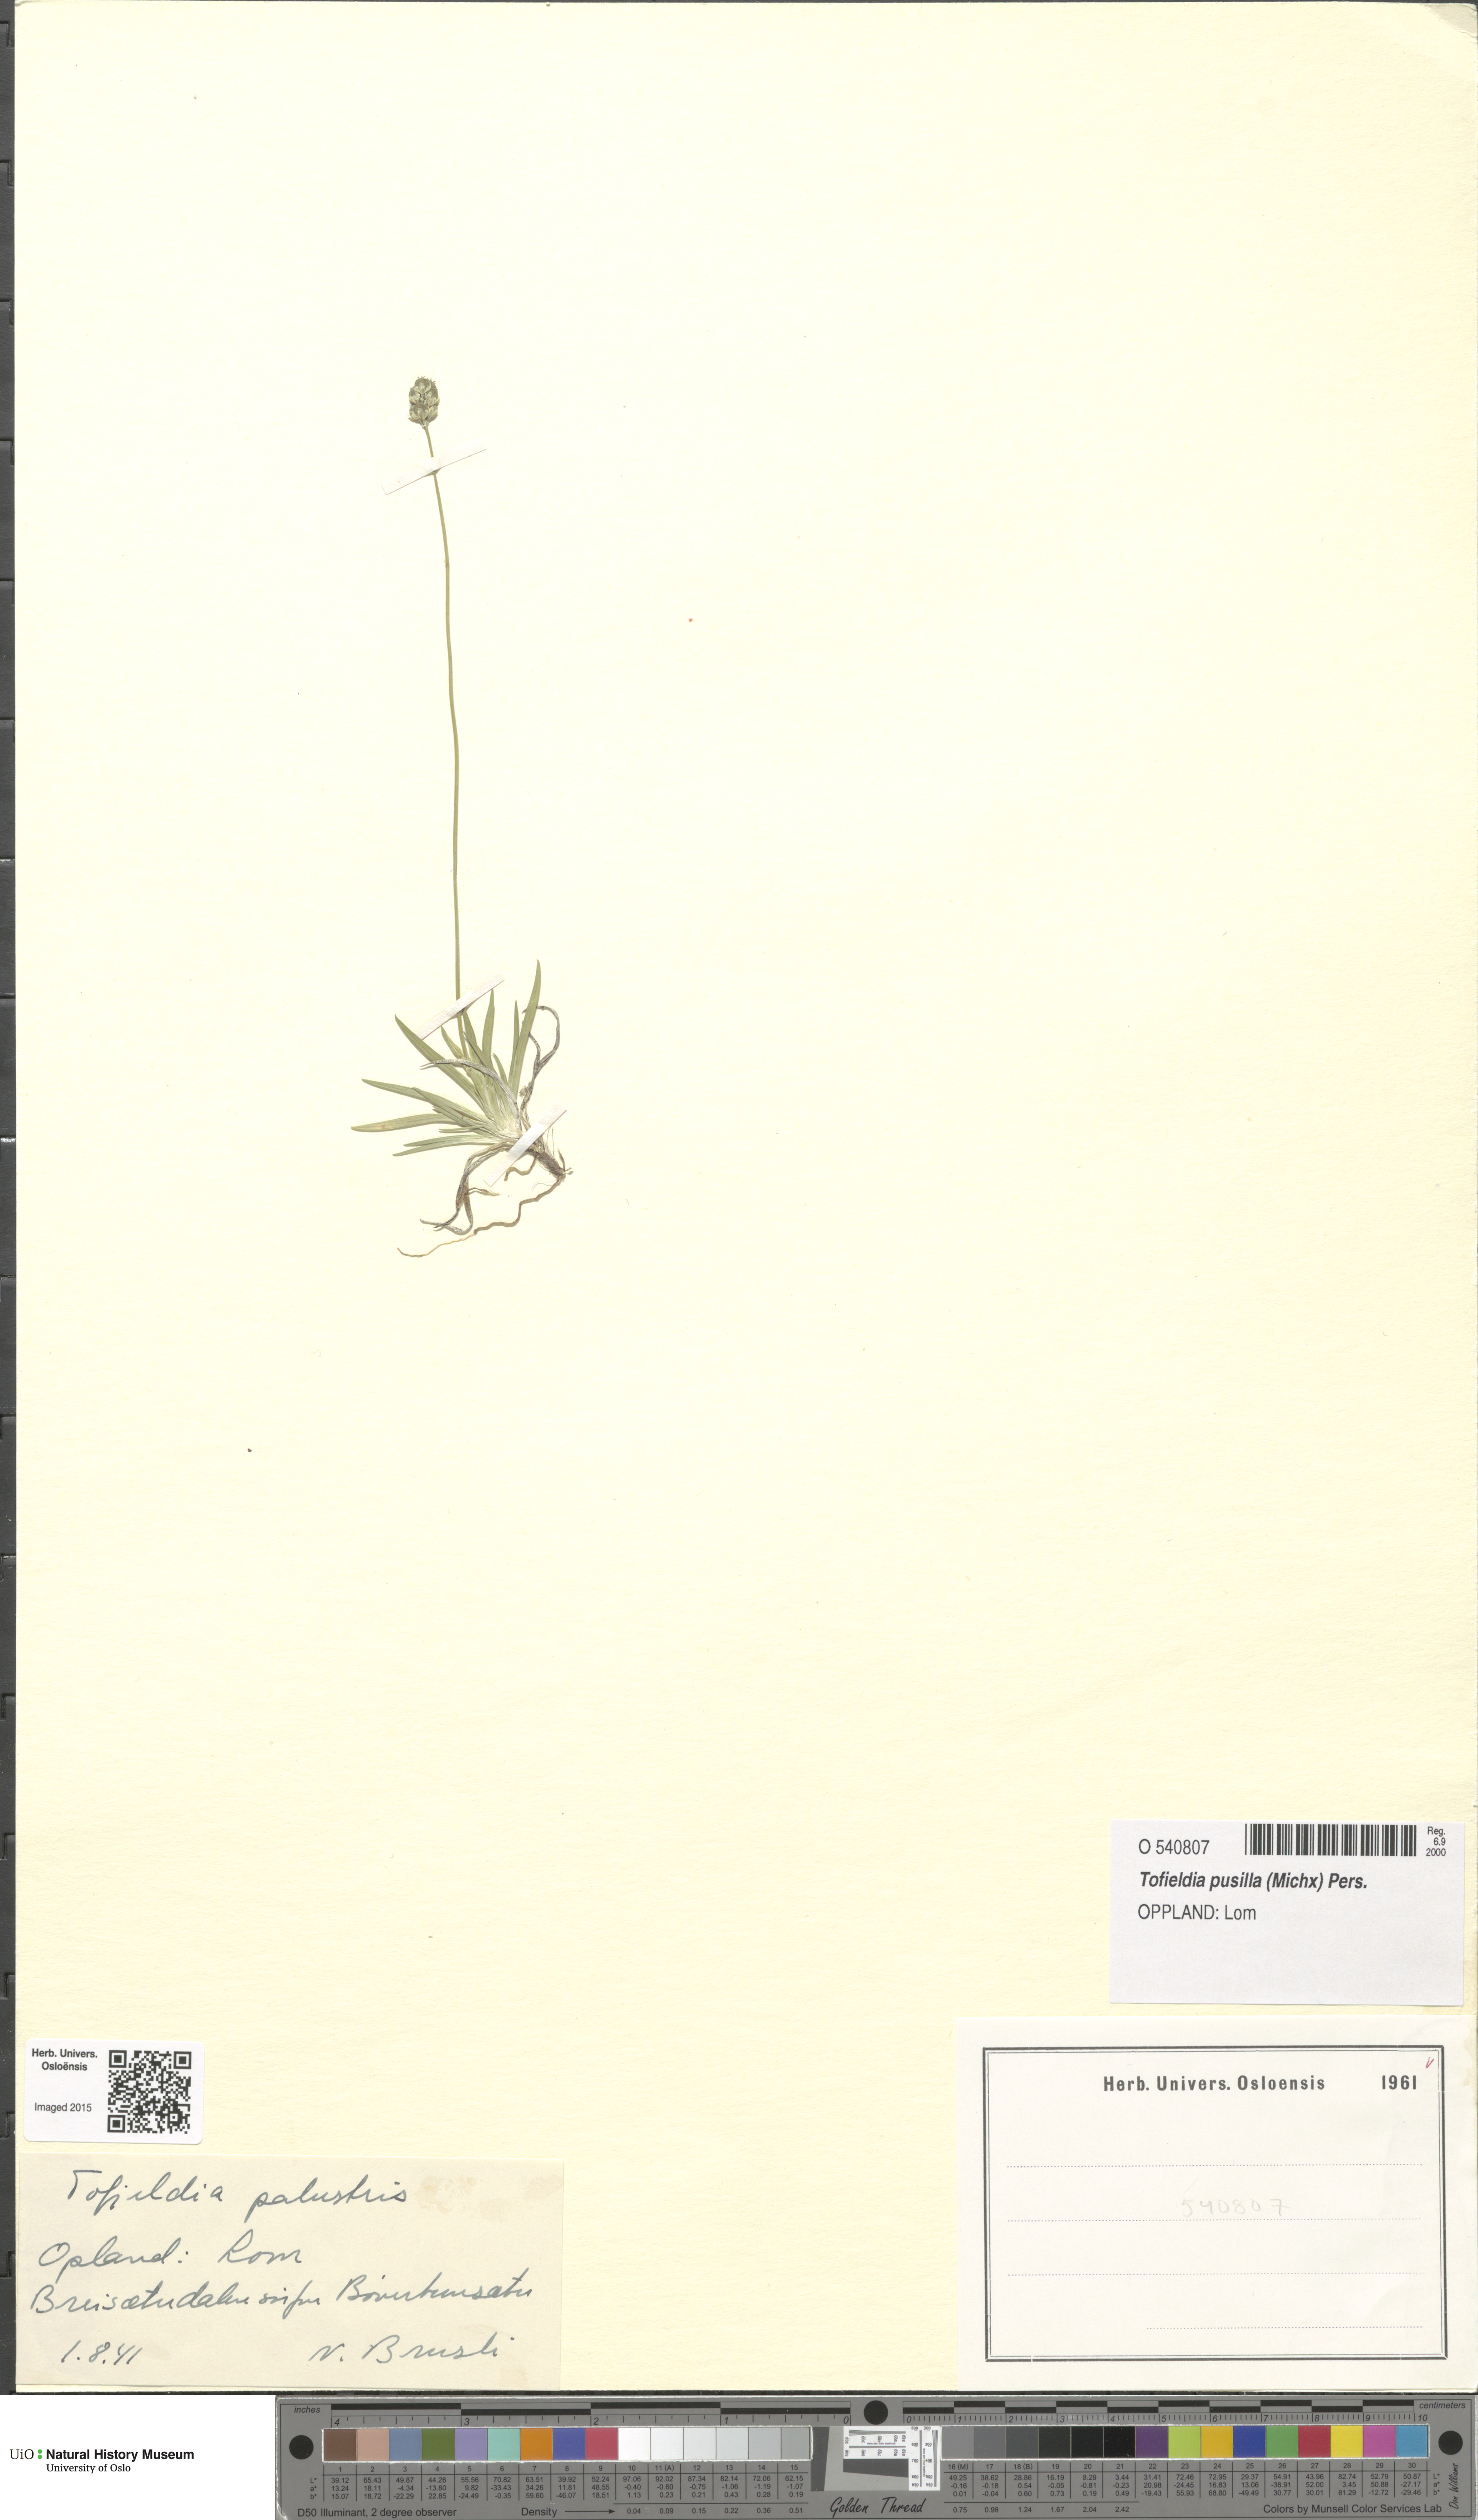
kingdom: Plantae
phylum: Tracheophyta
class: Liliopsida
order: Alismatales
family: Tofieldiaceae
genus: Tofieldia
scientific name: Tofieldia pusilla
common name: Scottish false asphodel
